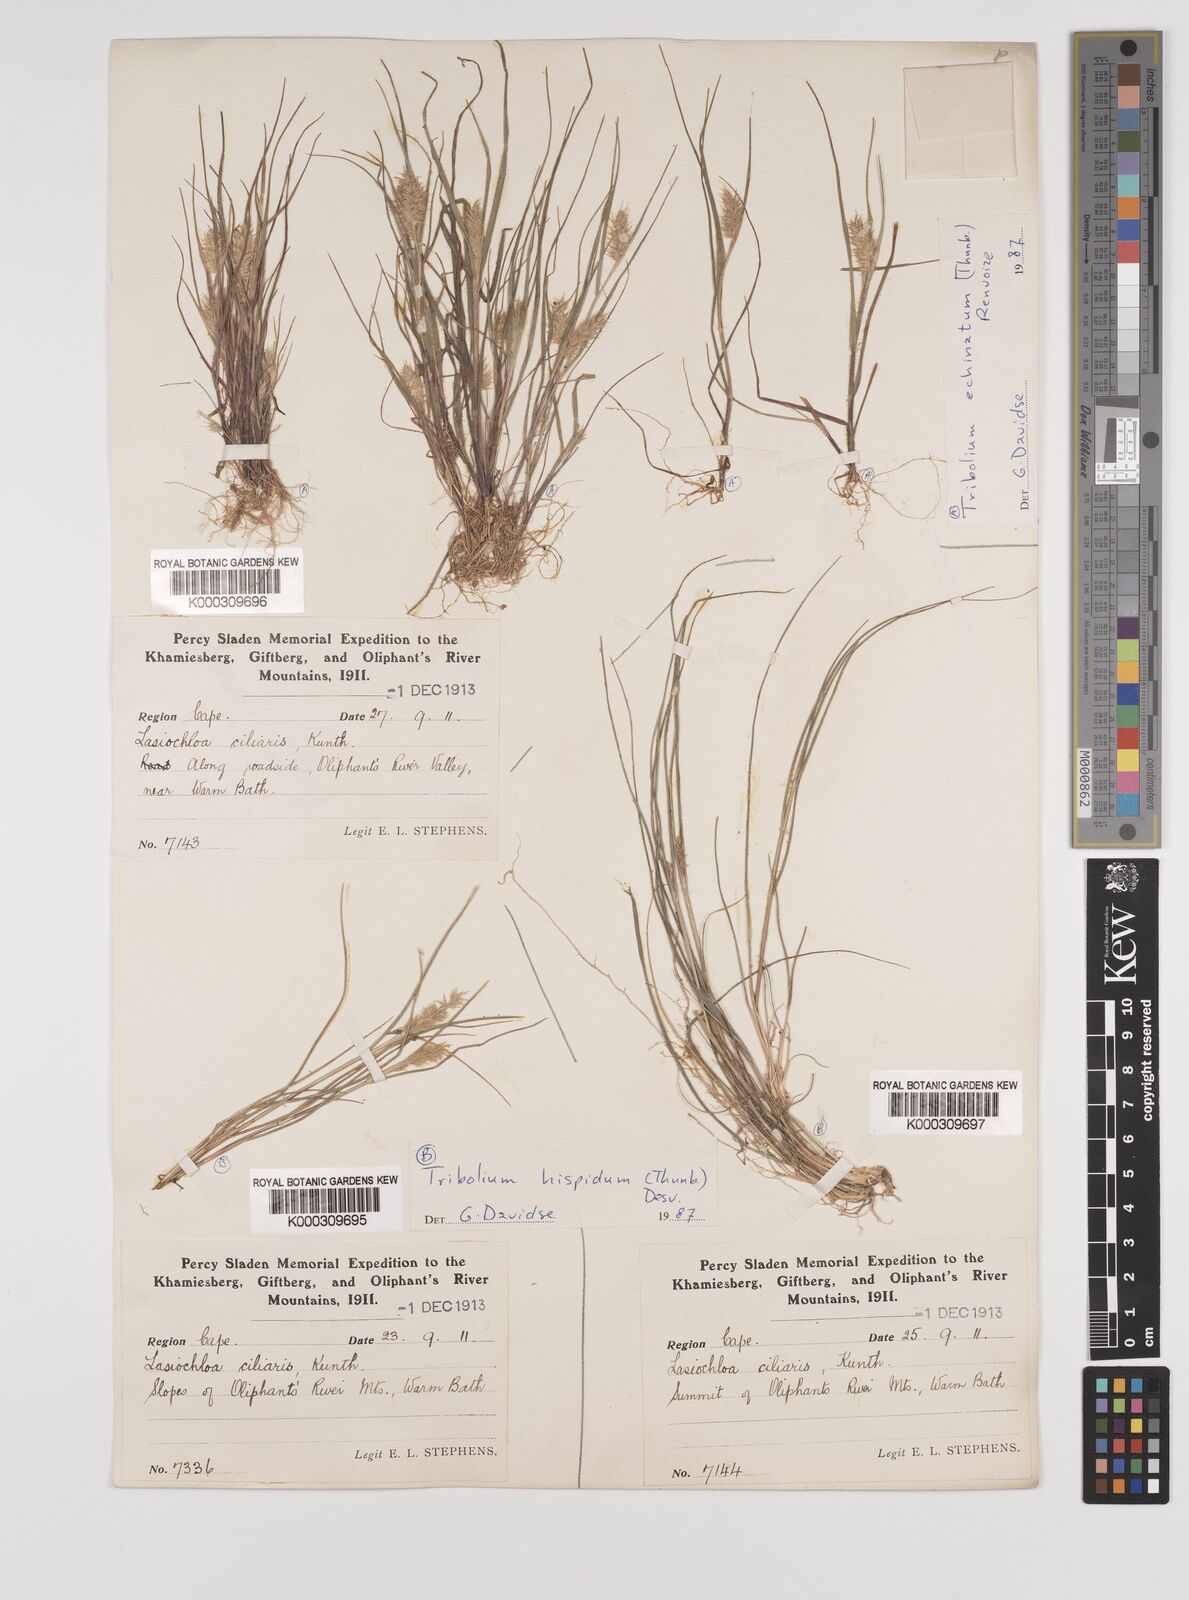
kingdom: Plantae
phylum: Tracheophyta
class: Liliopsida
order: Poales
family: Poaceae
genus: Tribolium
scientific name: Tribolium hispidum
